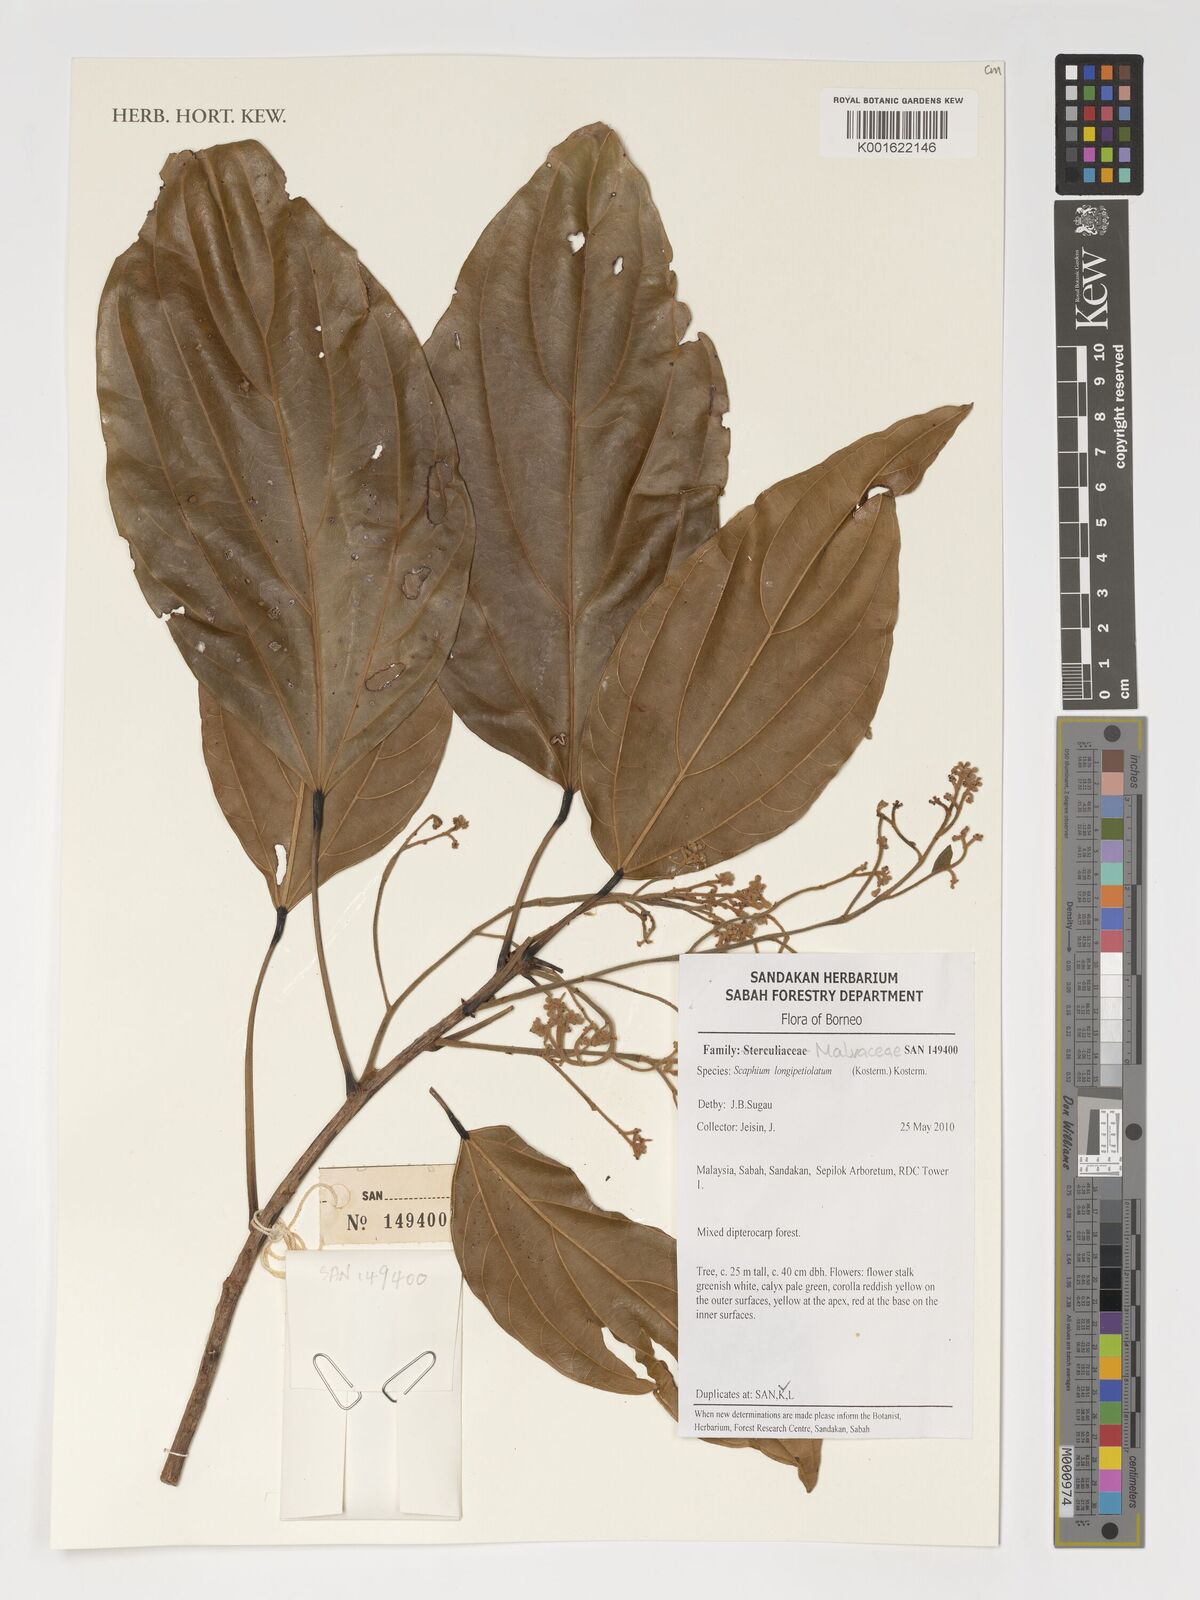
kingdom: Plantae
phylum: Tracheophyta
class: Magnoliopsida
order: Malvales
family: Malvaceae
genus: Scaphium
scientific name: Scaphium longipetiolatum
